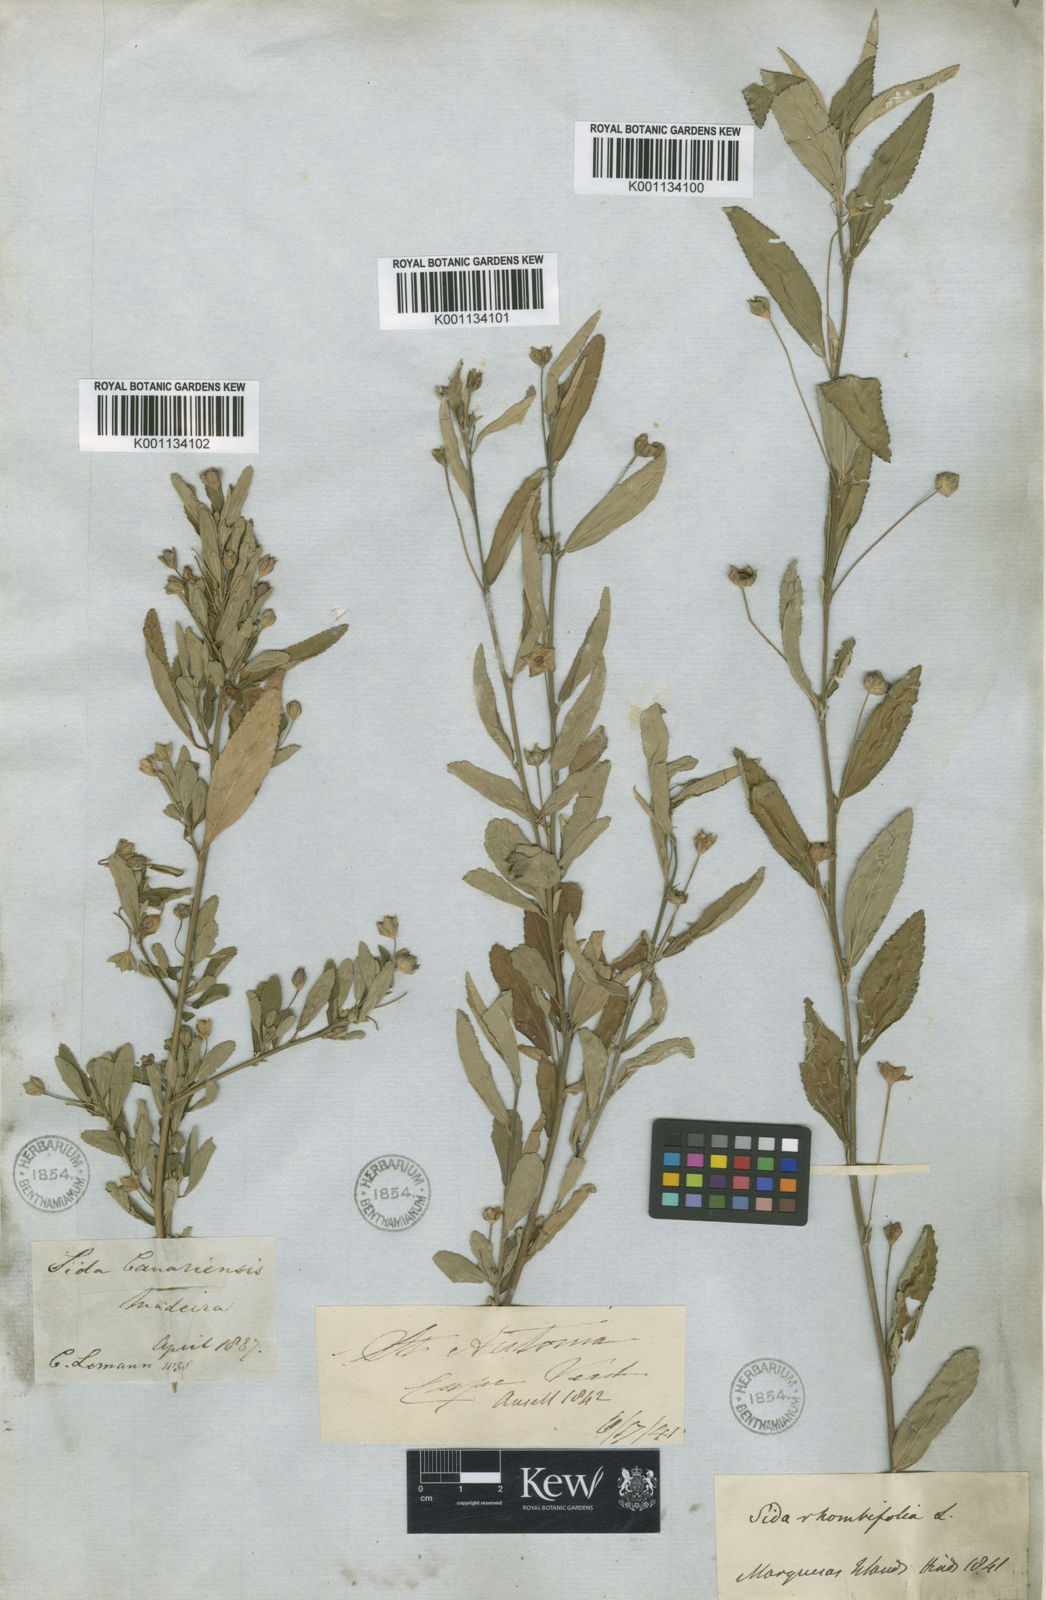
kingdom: Plantae
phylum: Tracheophyta
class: Magnoliopsida
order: Malvales
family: Malvaceae
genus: Sida
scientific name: Sida acuta
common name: Common wireweed
